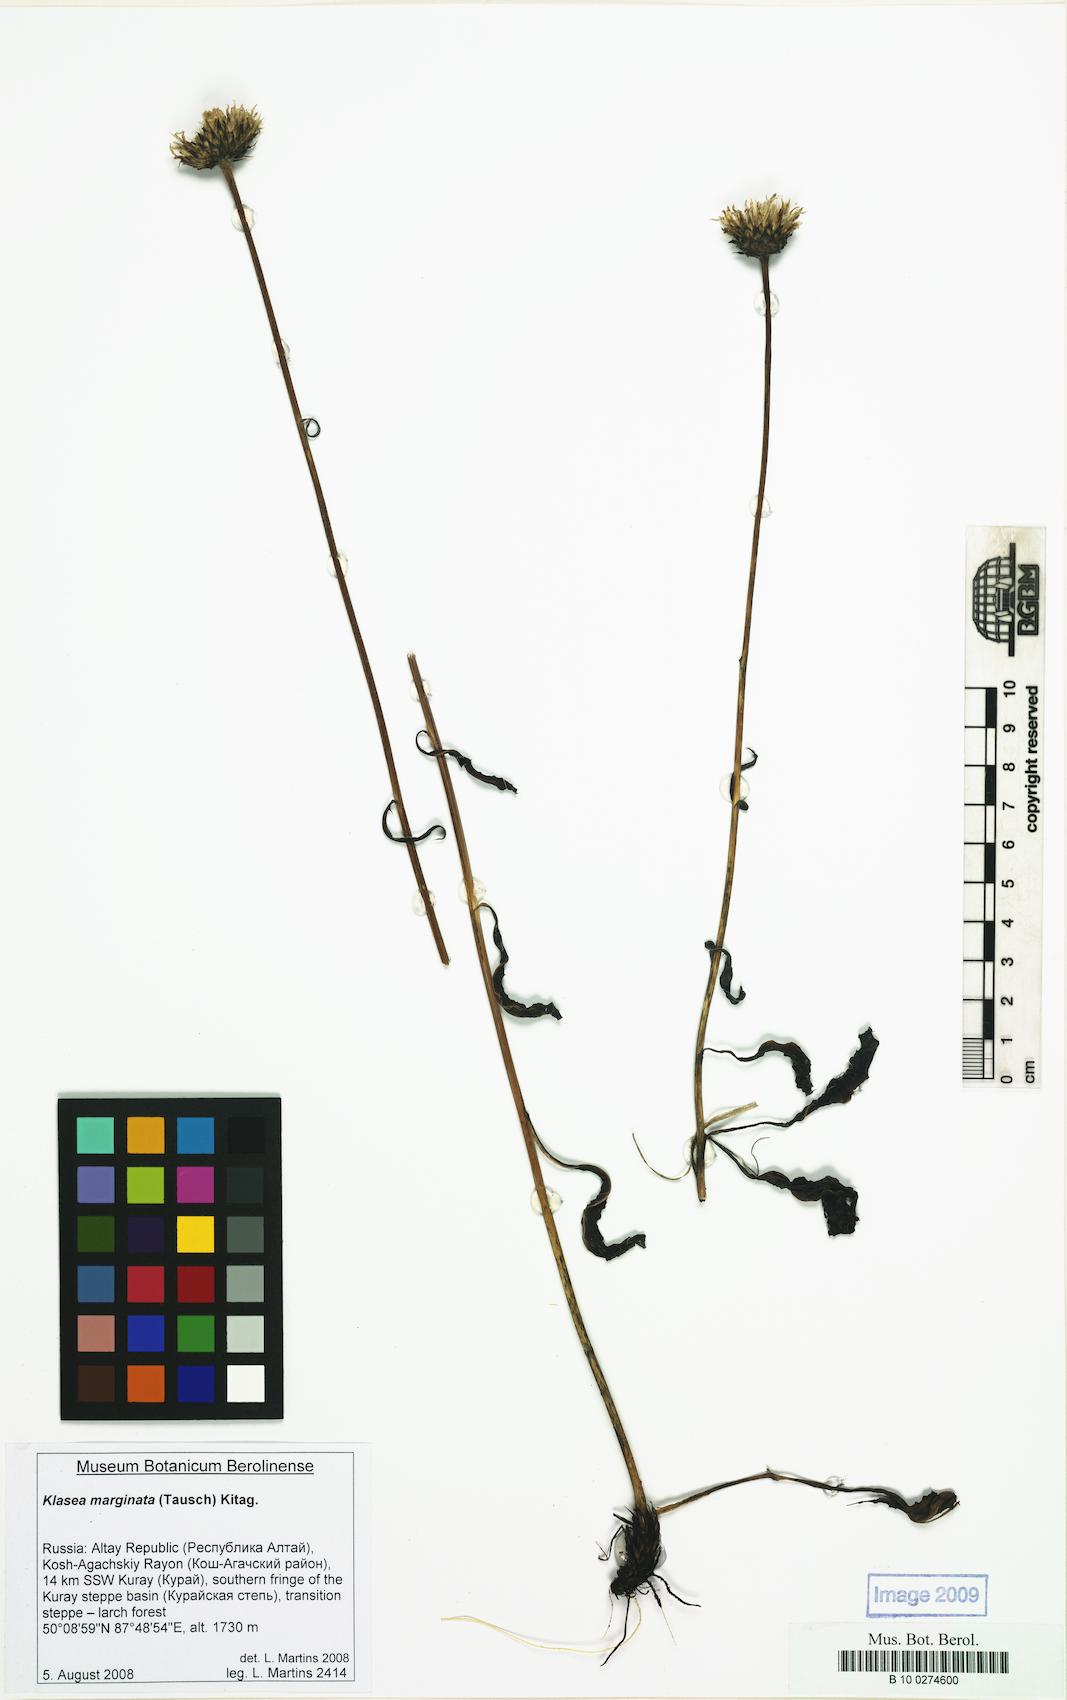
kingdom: Plantae
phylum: Tracheophyta
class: Magnoliopsida
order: Asterales
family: Asteraceae
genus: Klasea
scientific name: Klasea marginata
